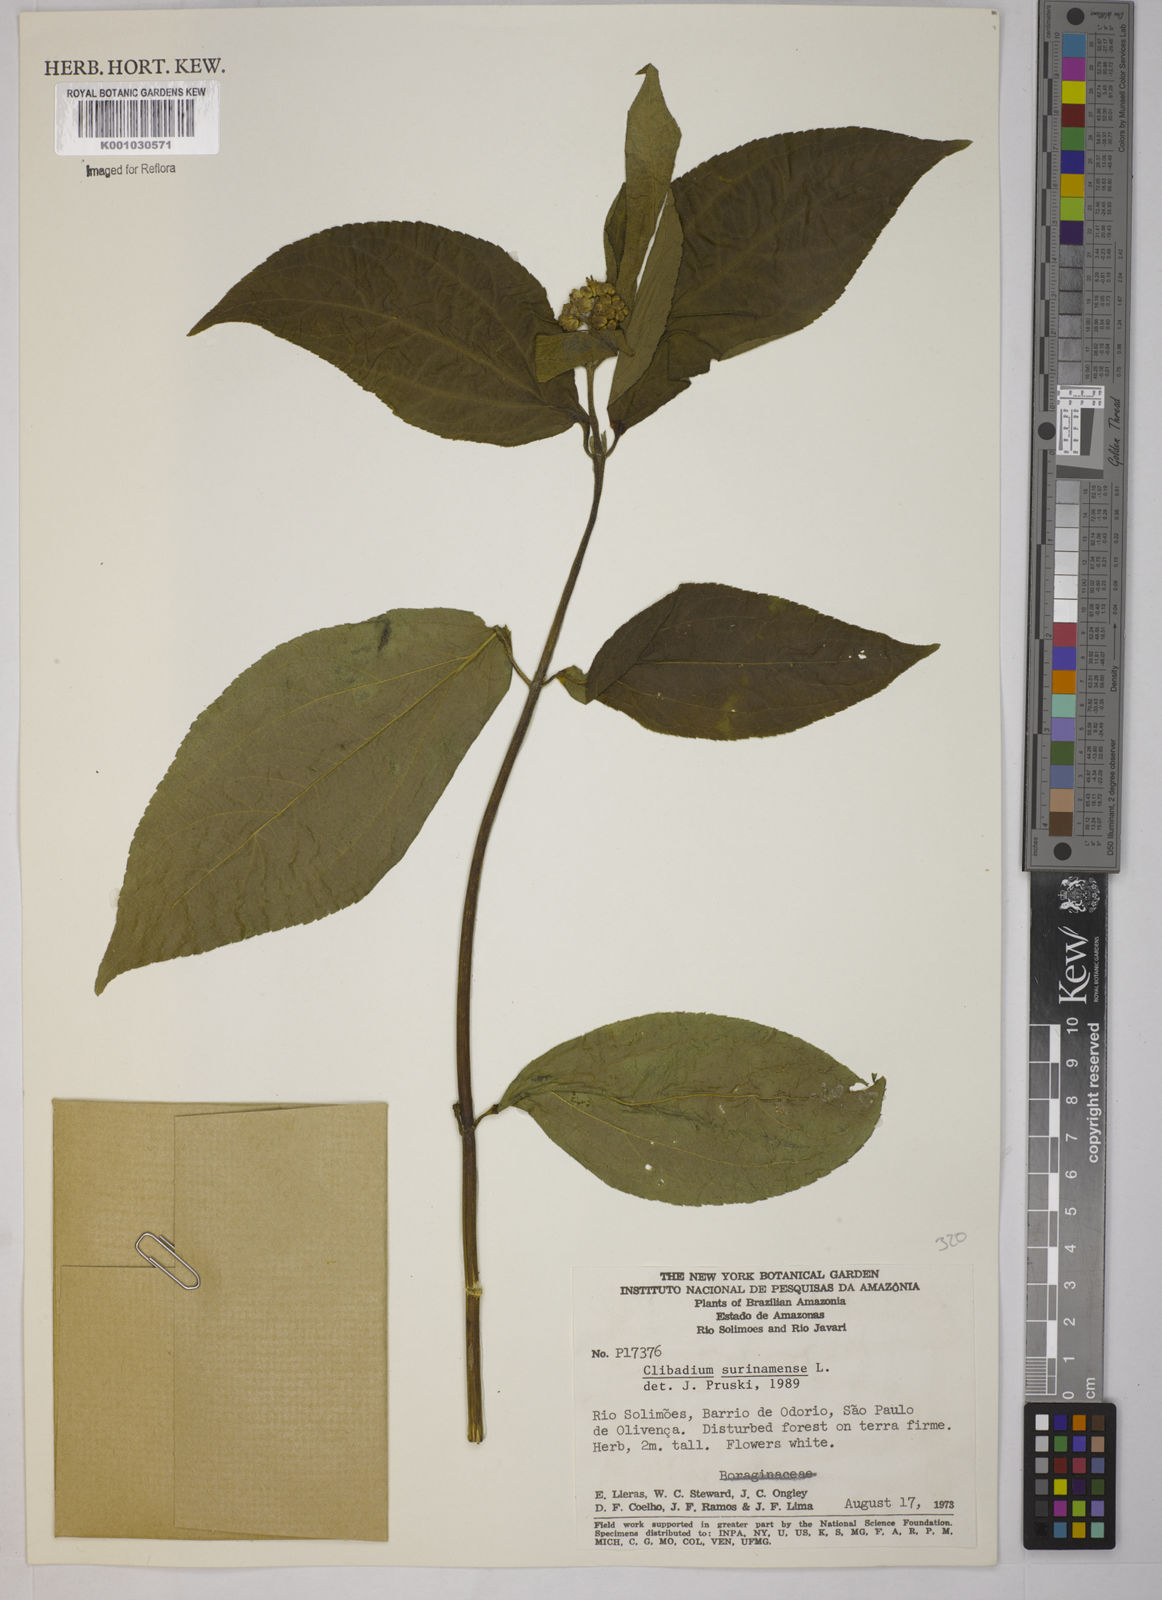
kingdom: Plantae
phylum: Tracheophyta
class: Magnoliopsida
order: Asterales
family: Asteraceae
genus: Clibadium
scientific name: Clibadium
